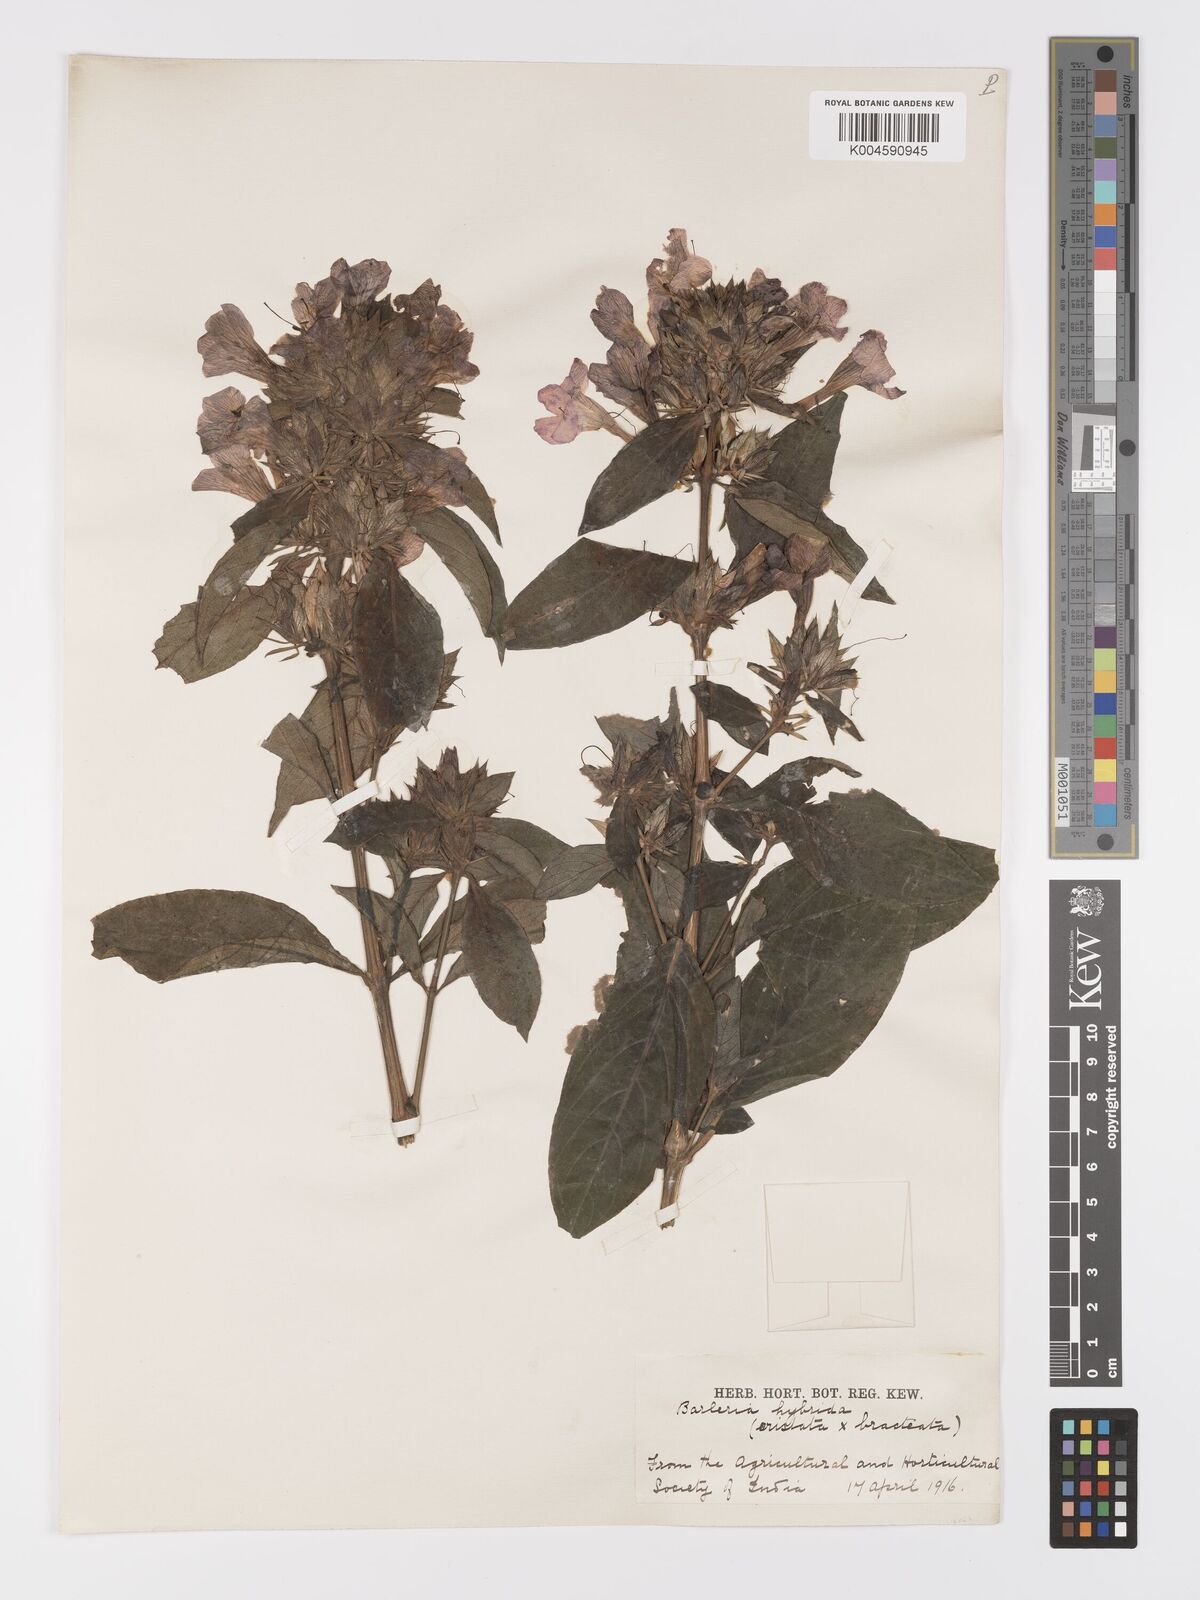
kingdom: Plantae
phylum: Tracheophyta
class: Magnoliopsida
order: Lamiales
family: Acanthaceae
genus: Barleria
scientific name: Barleria cristata
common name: Crested philippine violet
